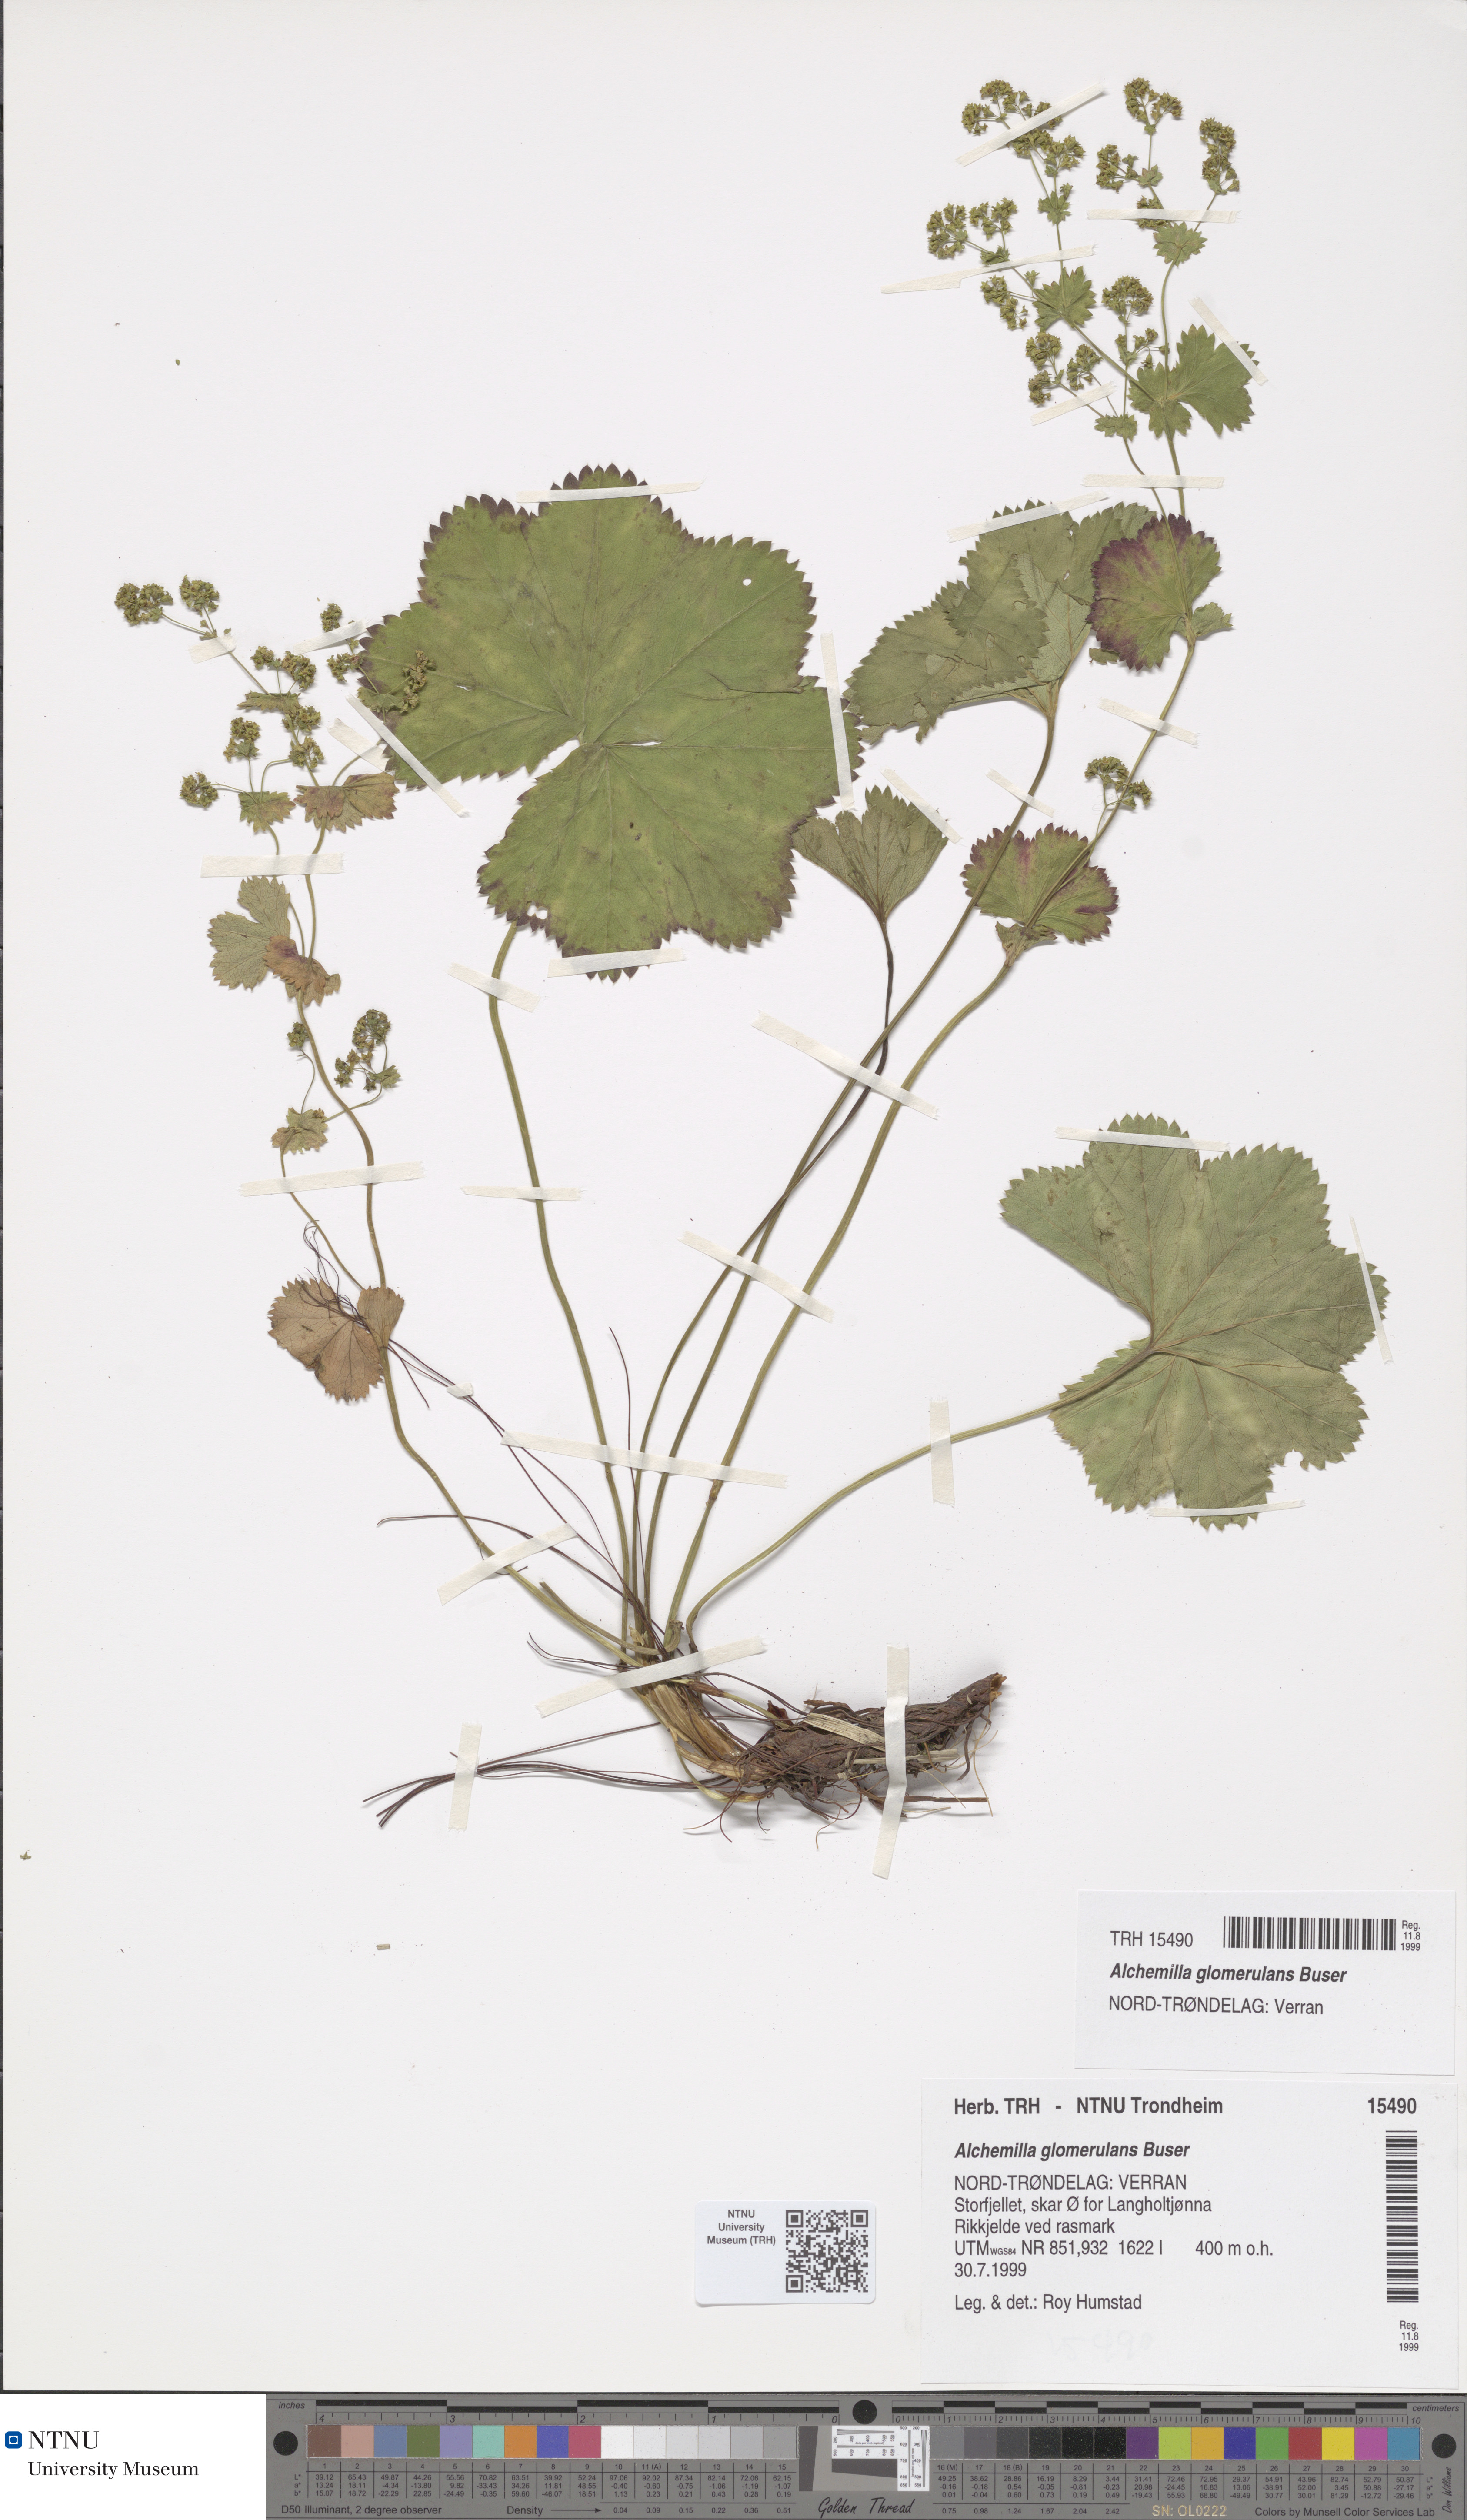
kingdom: Plantae
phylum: Tracheophyta
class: Magnoliopsida
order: Rosales
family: Rosaceae
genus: Alchemilla
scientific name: Alchemilla glomerulans
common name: Clustered lady's mantle
